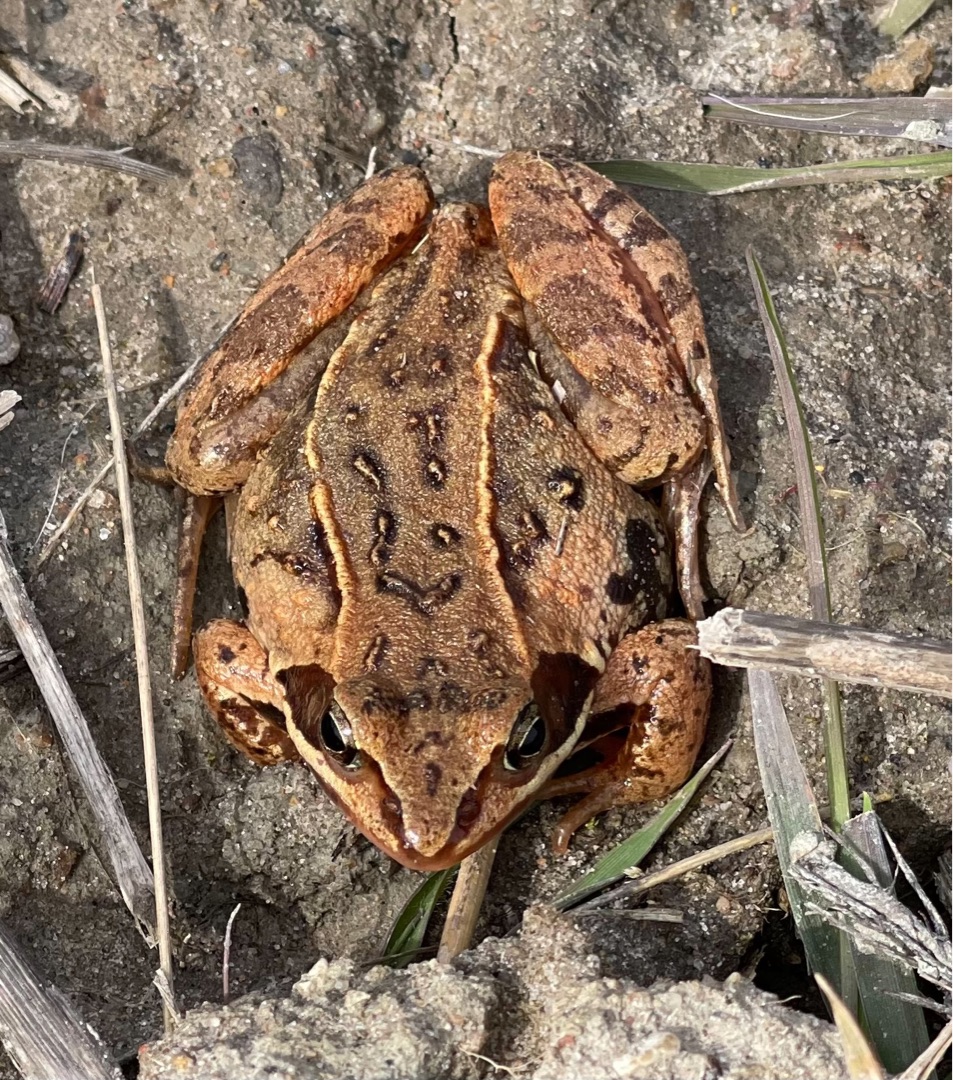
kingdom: Animalia
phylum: Chordata
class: Amphibia
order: Anura
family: Ranidae
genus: Rana
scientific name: Rana arvalis
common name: Spidssnudet frø
